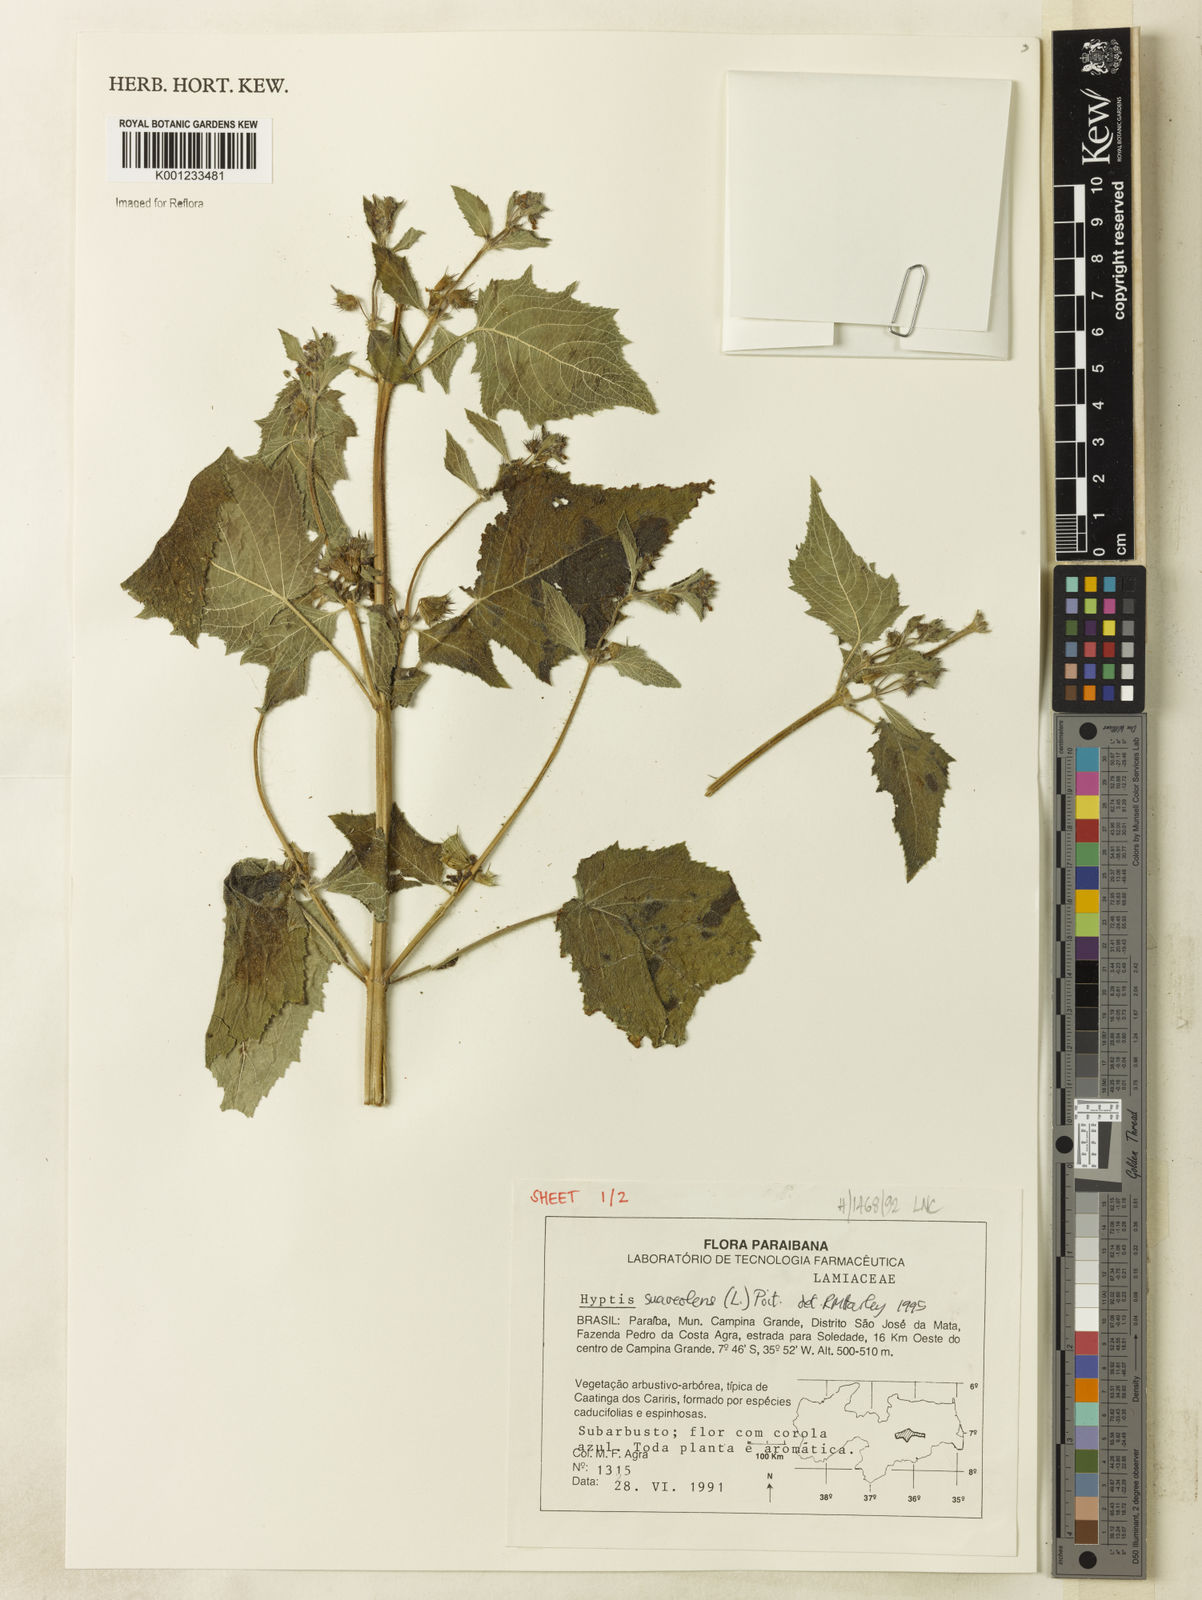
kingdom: Plantae
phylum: Tracheophyta
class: Magnoliopsida
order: Lamiales
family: Lamiaceae
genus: Mesosphaerum
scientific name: Mesosphaerum suaveolens
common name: Pignut
